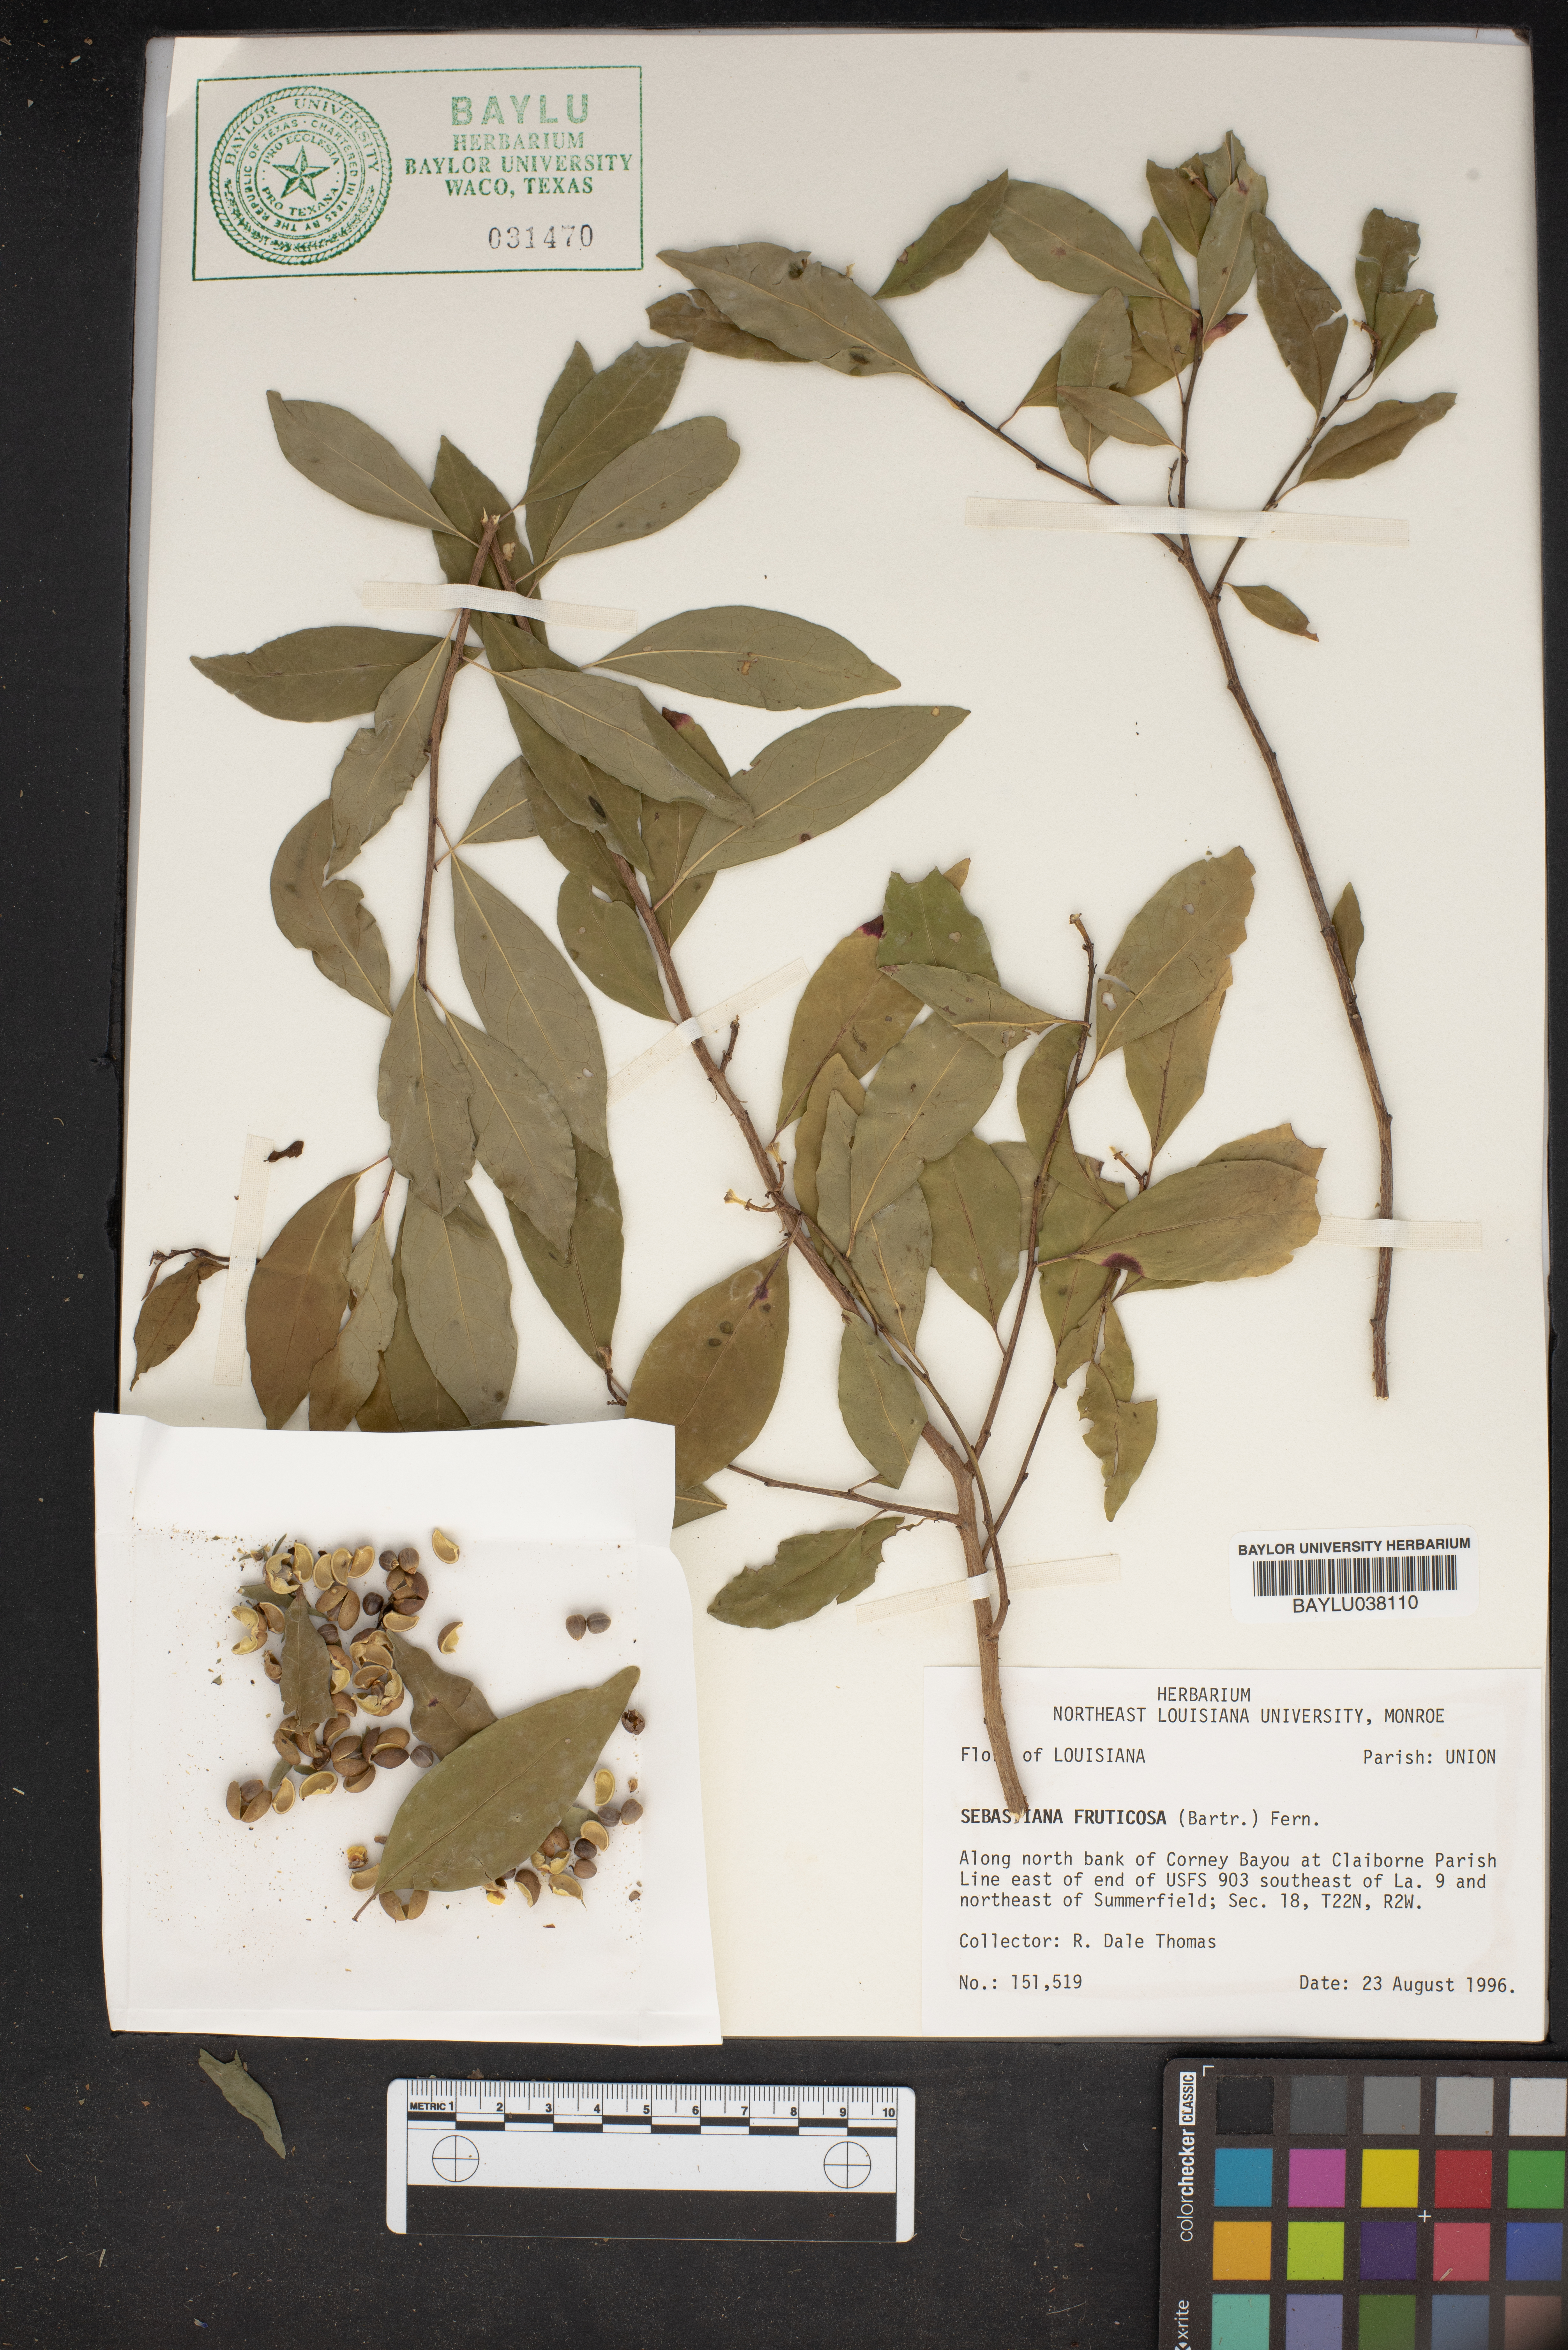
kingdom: Plantae
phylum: Tracheophyta
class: Magnoliopsida
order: Malpighiales
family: Euphorbiaceae
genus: Ditrysinia
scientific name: Ditrysinia fruticosa
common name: Gulf sebastian-bush
